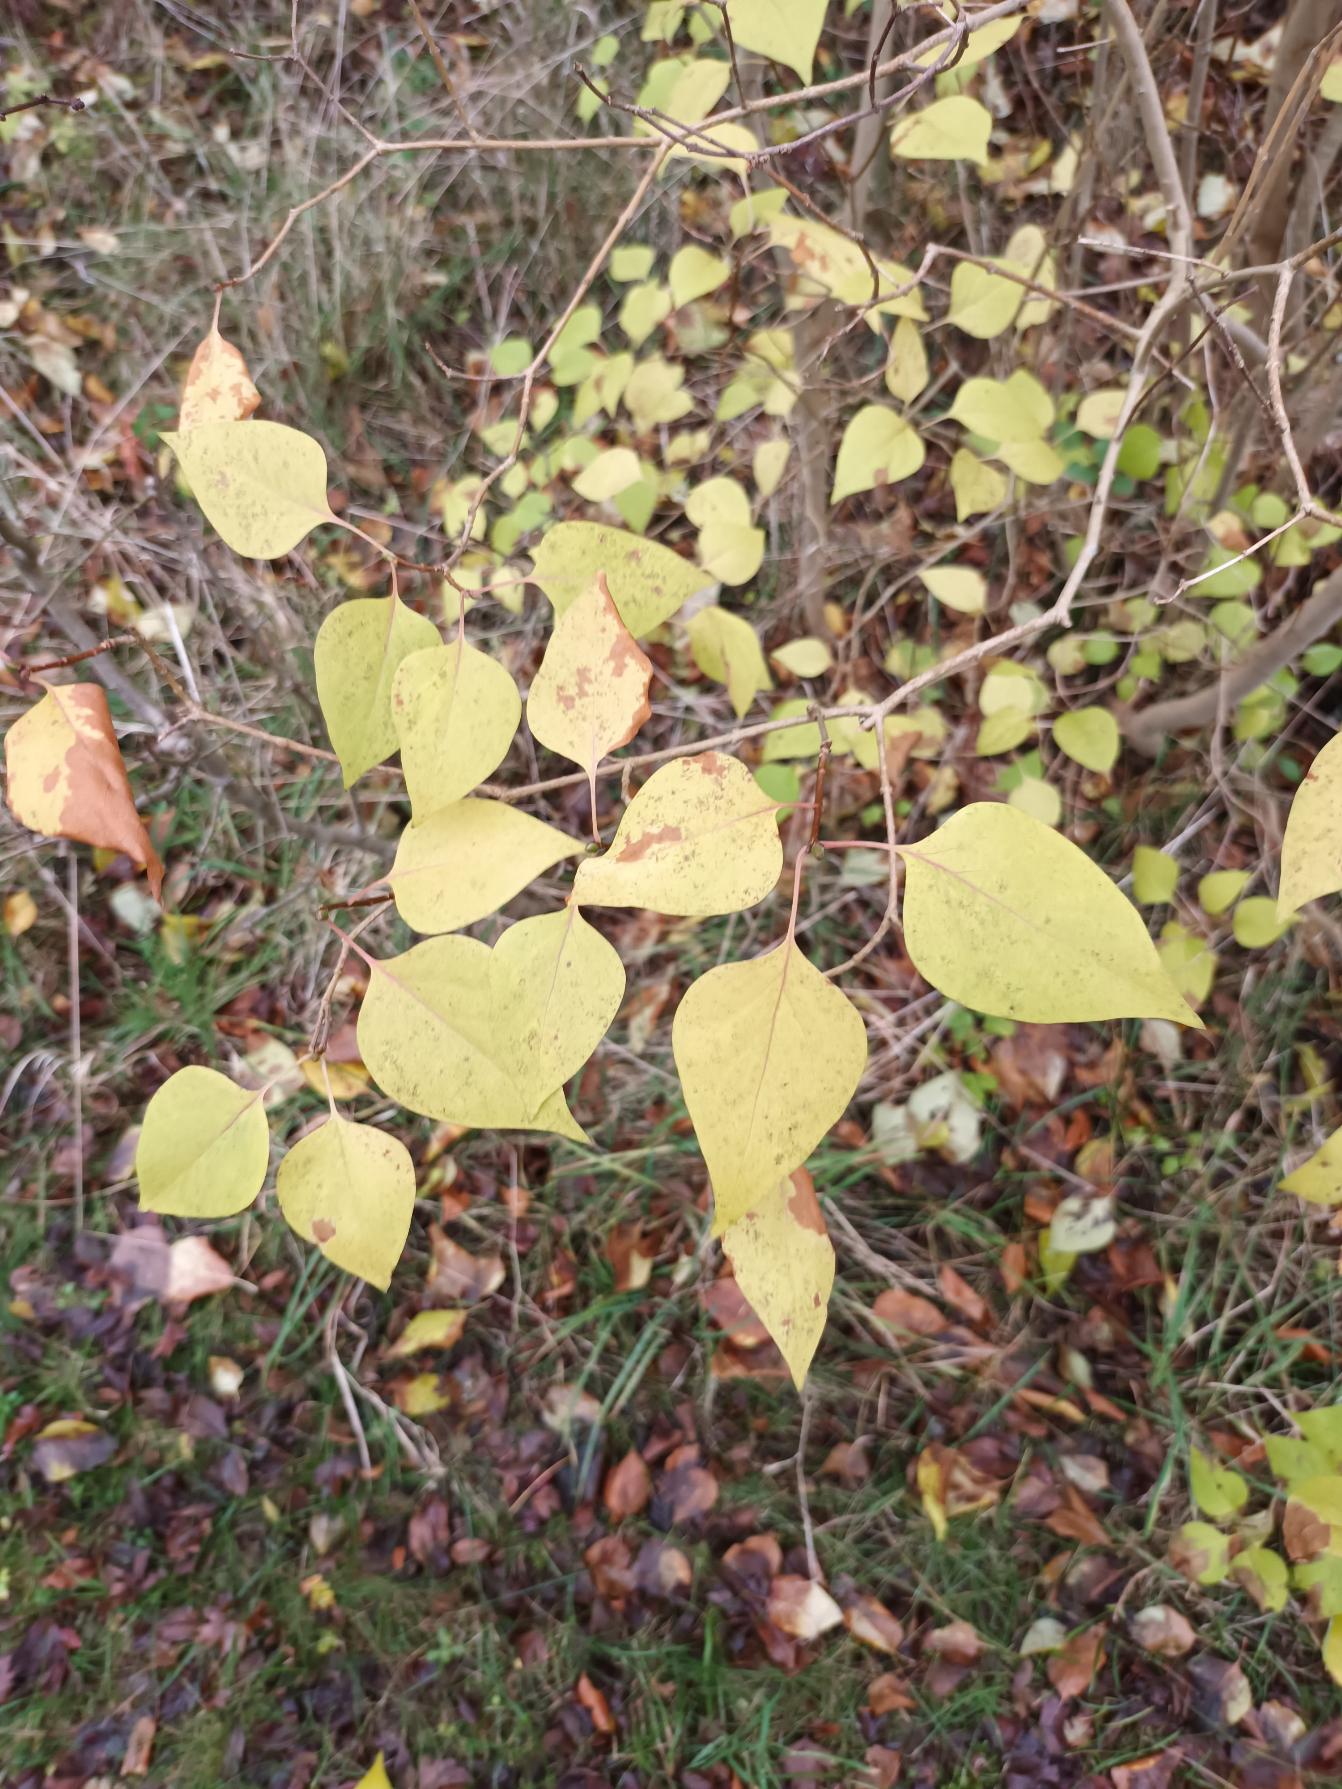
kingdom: Plantae
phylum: Tracheophyta
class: Magnoliopsida
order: Lamiales
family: Oleaceae
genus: Syringa
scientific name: Syringa vulgaris
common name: Syren
